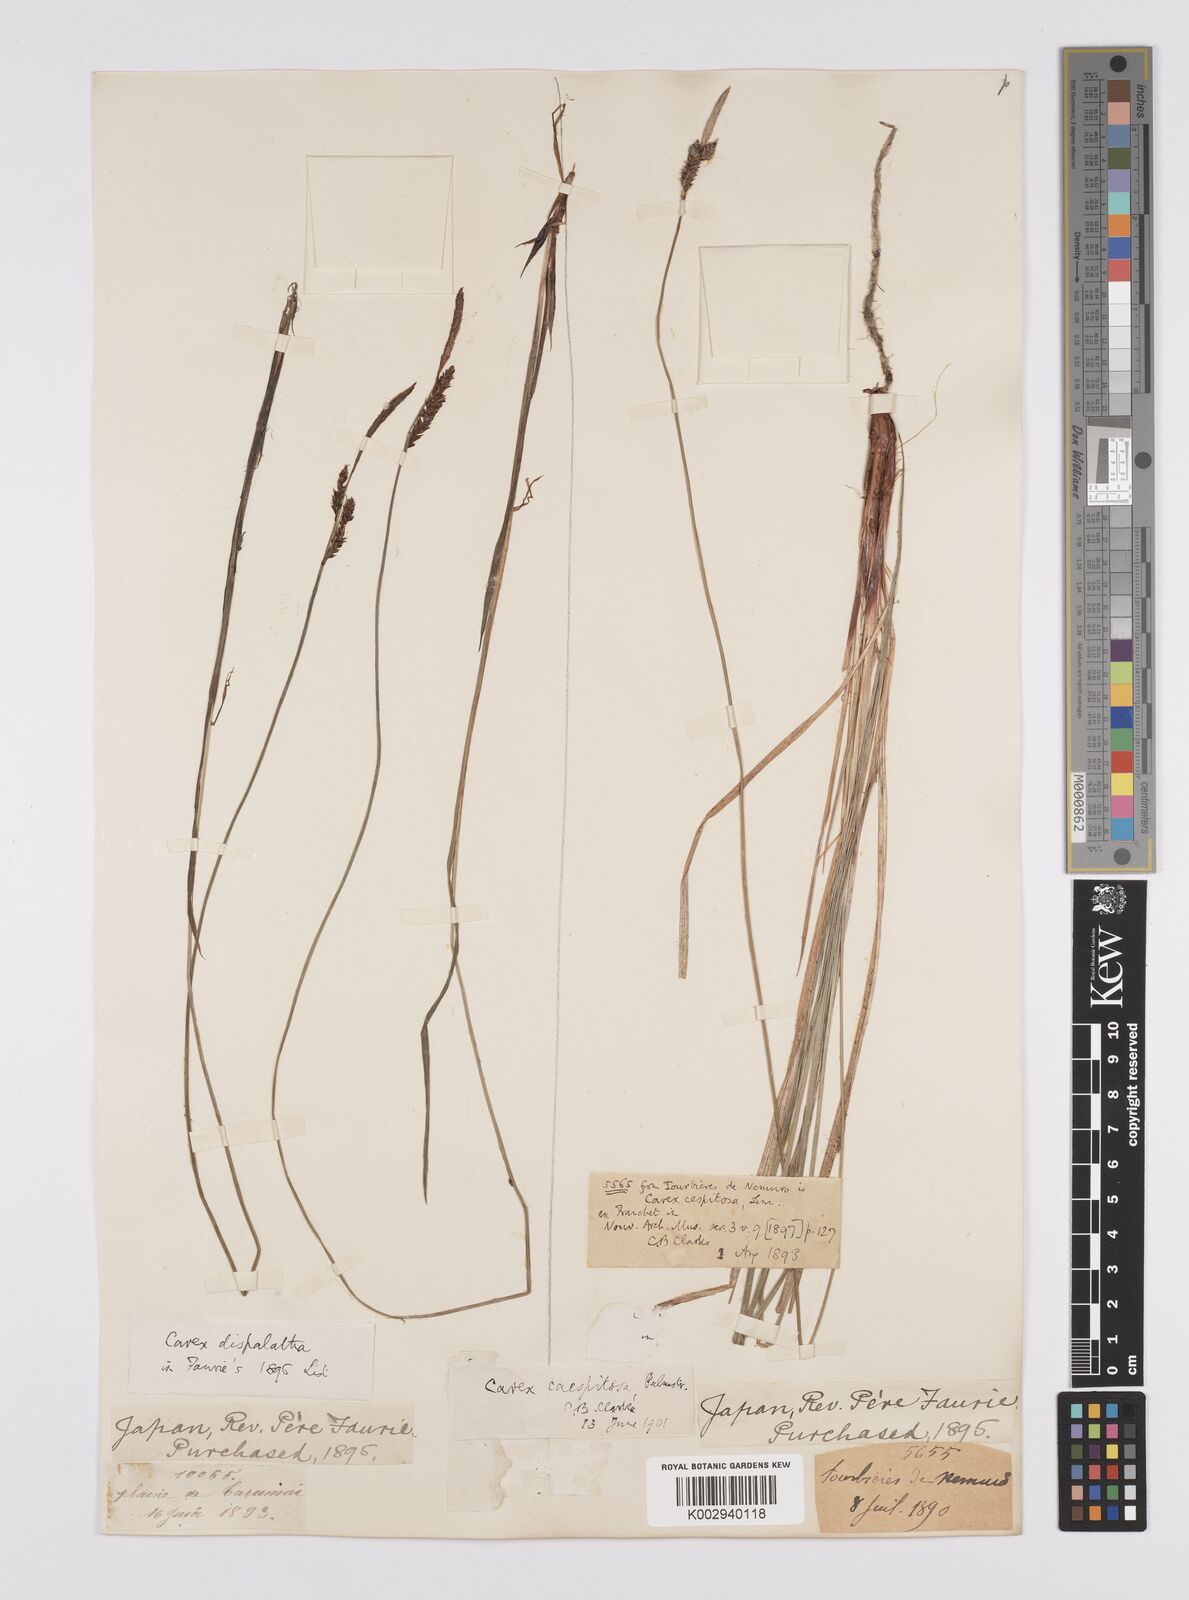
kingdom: Plantae
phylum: Tracheophyta
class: Liliopsida
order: Poales
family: Cyperaceae
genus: Carex
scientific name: Carex cespitosa
